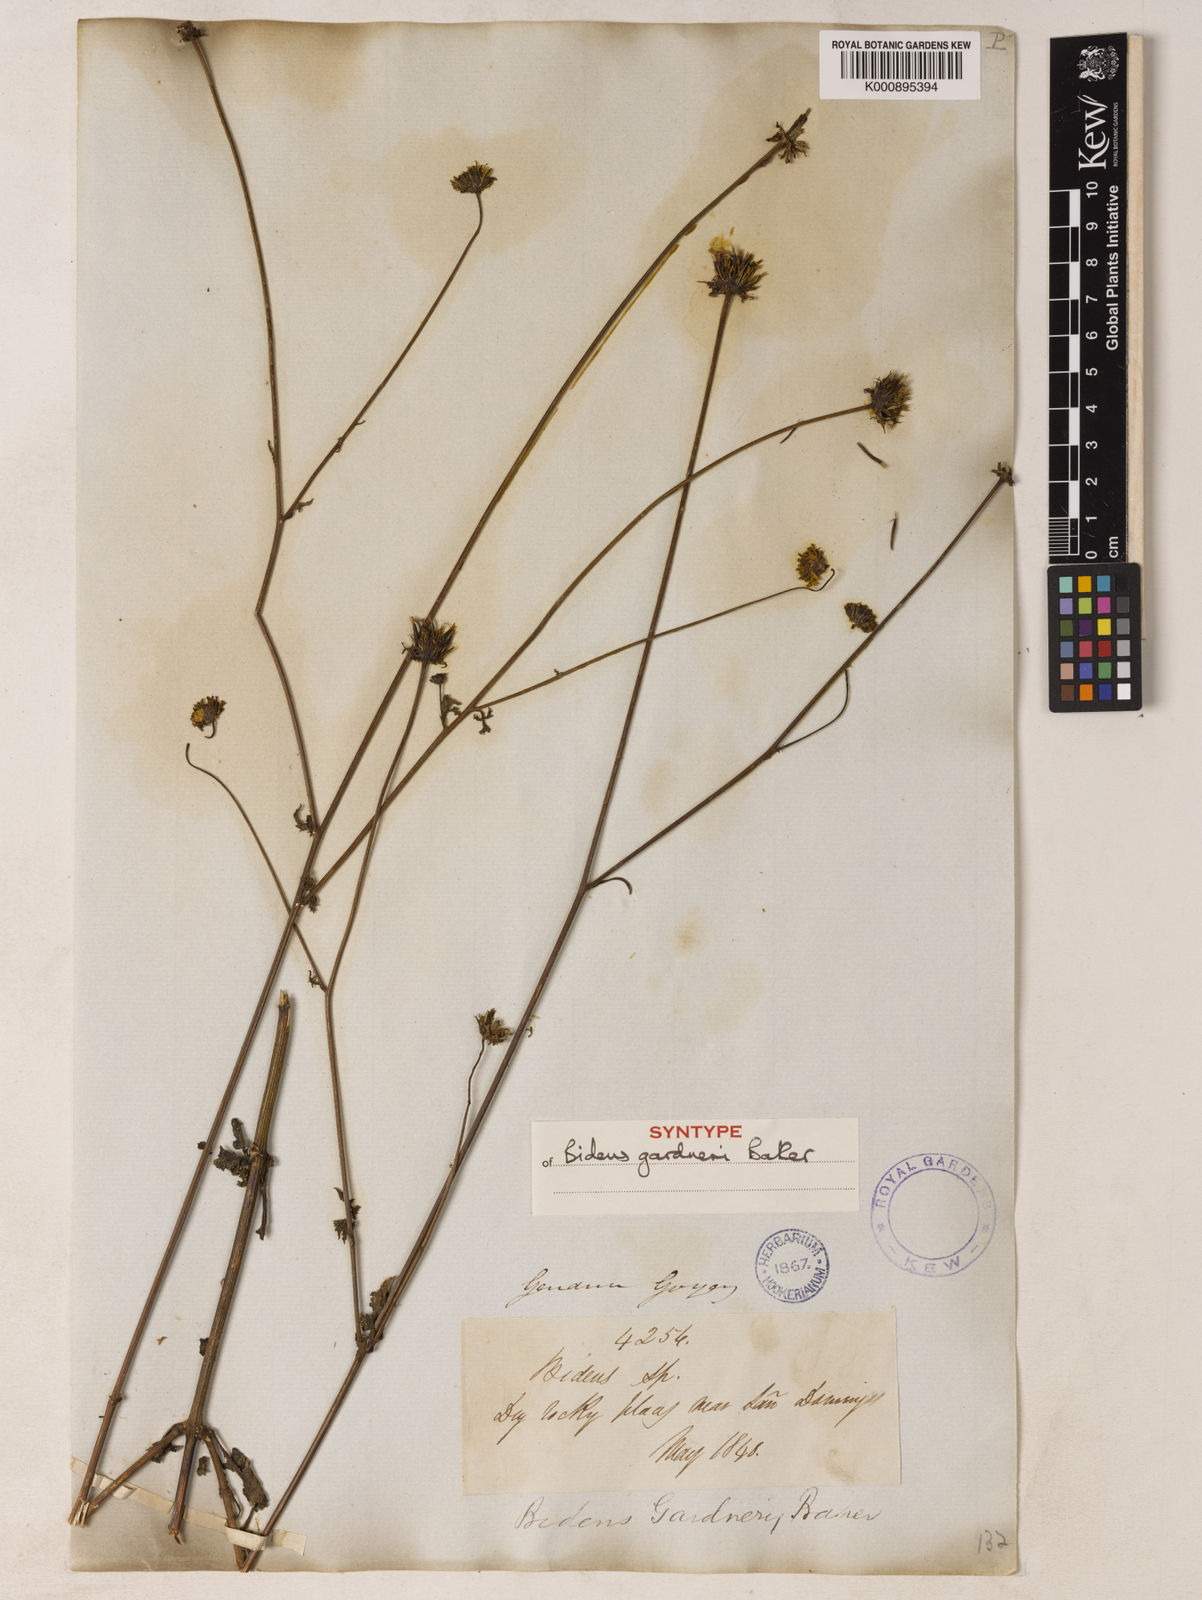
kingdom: Plantae
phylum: Tracheophyta
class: Magnoliopsida
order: Asterales
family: Asteraceae
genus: Bidens
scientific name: Bidens gardneri
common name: Ridge beggartick
